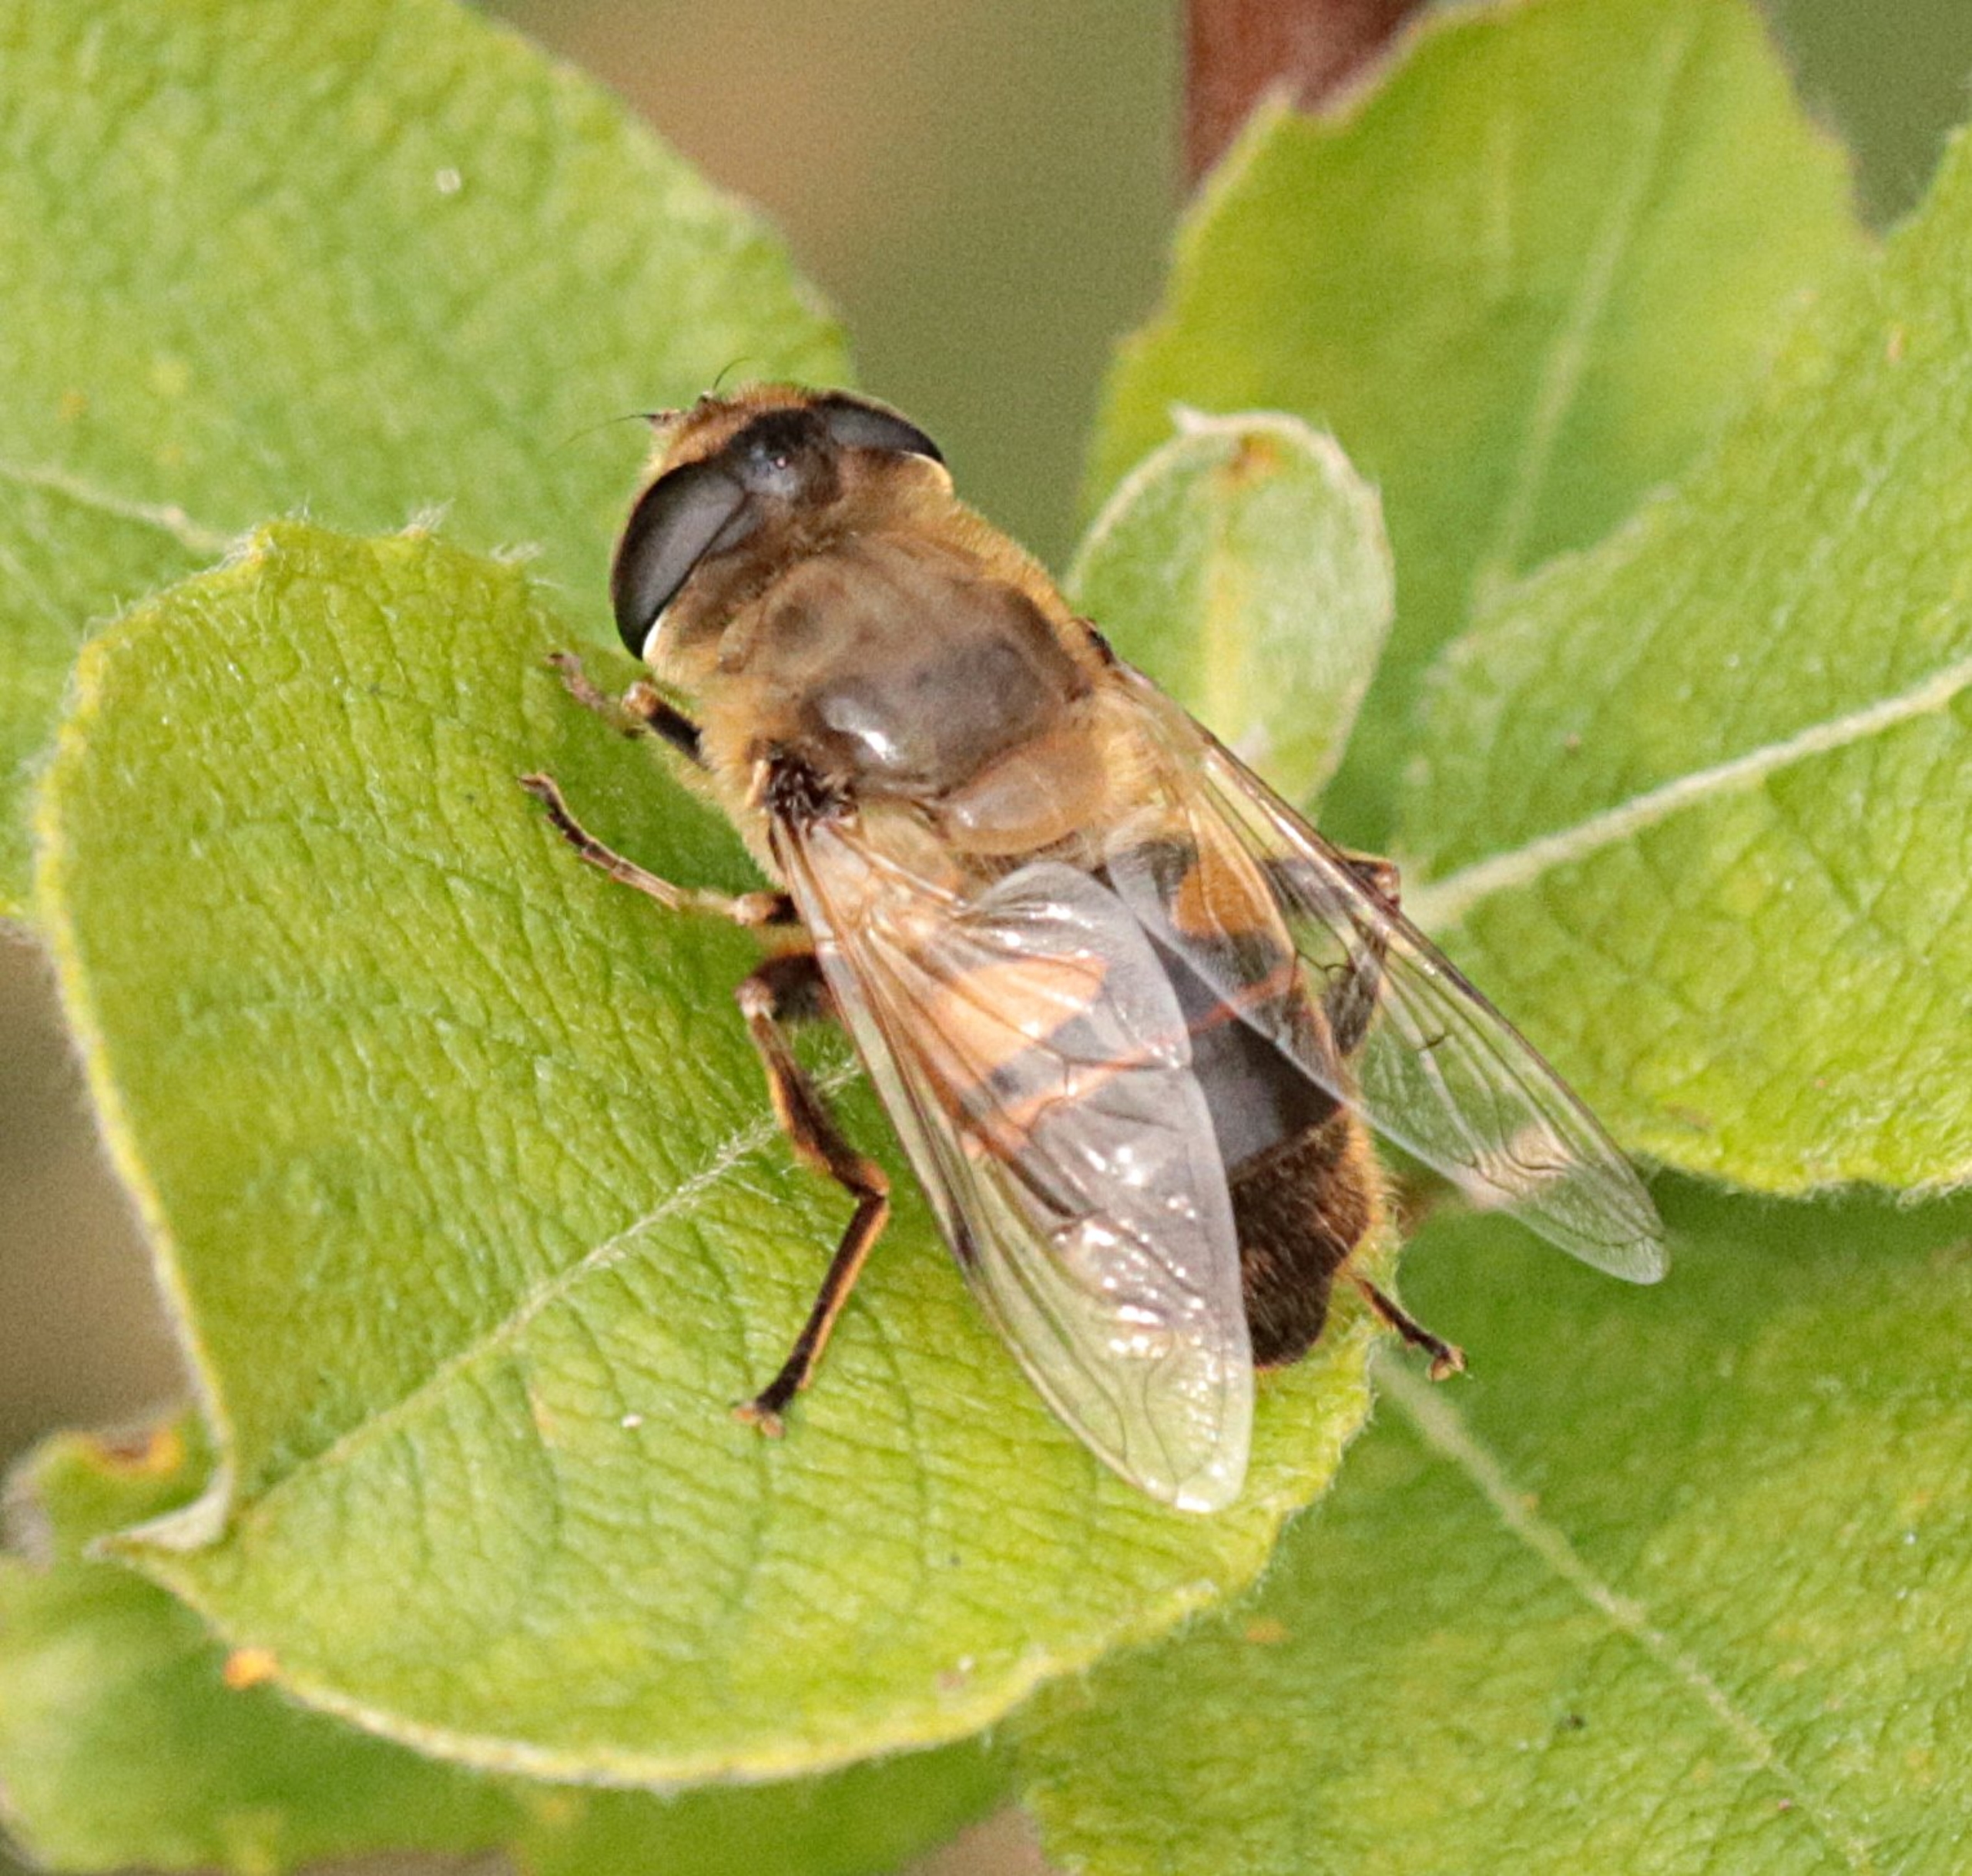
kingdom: Animalia
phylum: Arthropoda
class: Insecta
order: Diptera
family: Syrphidae
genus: Eristalis
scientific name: Eristalis tenax
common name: Droneflue
